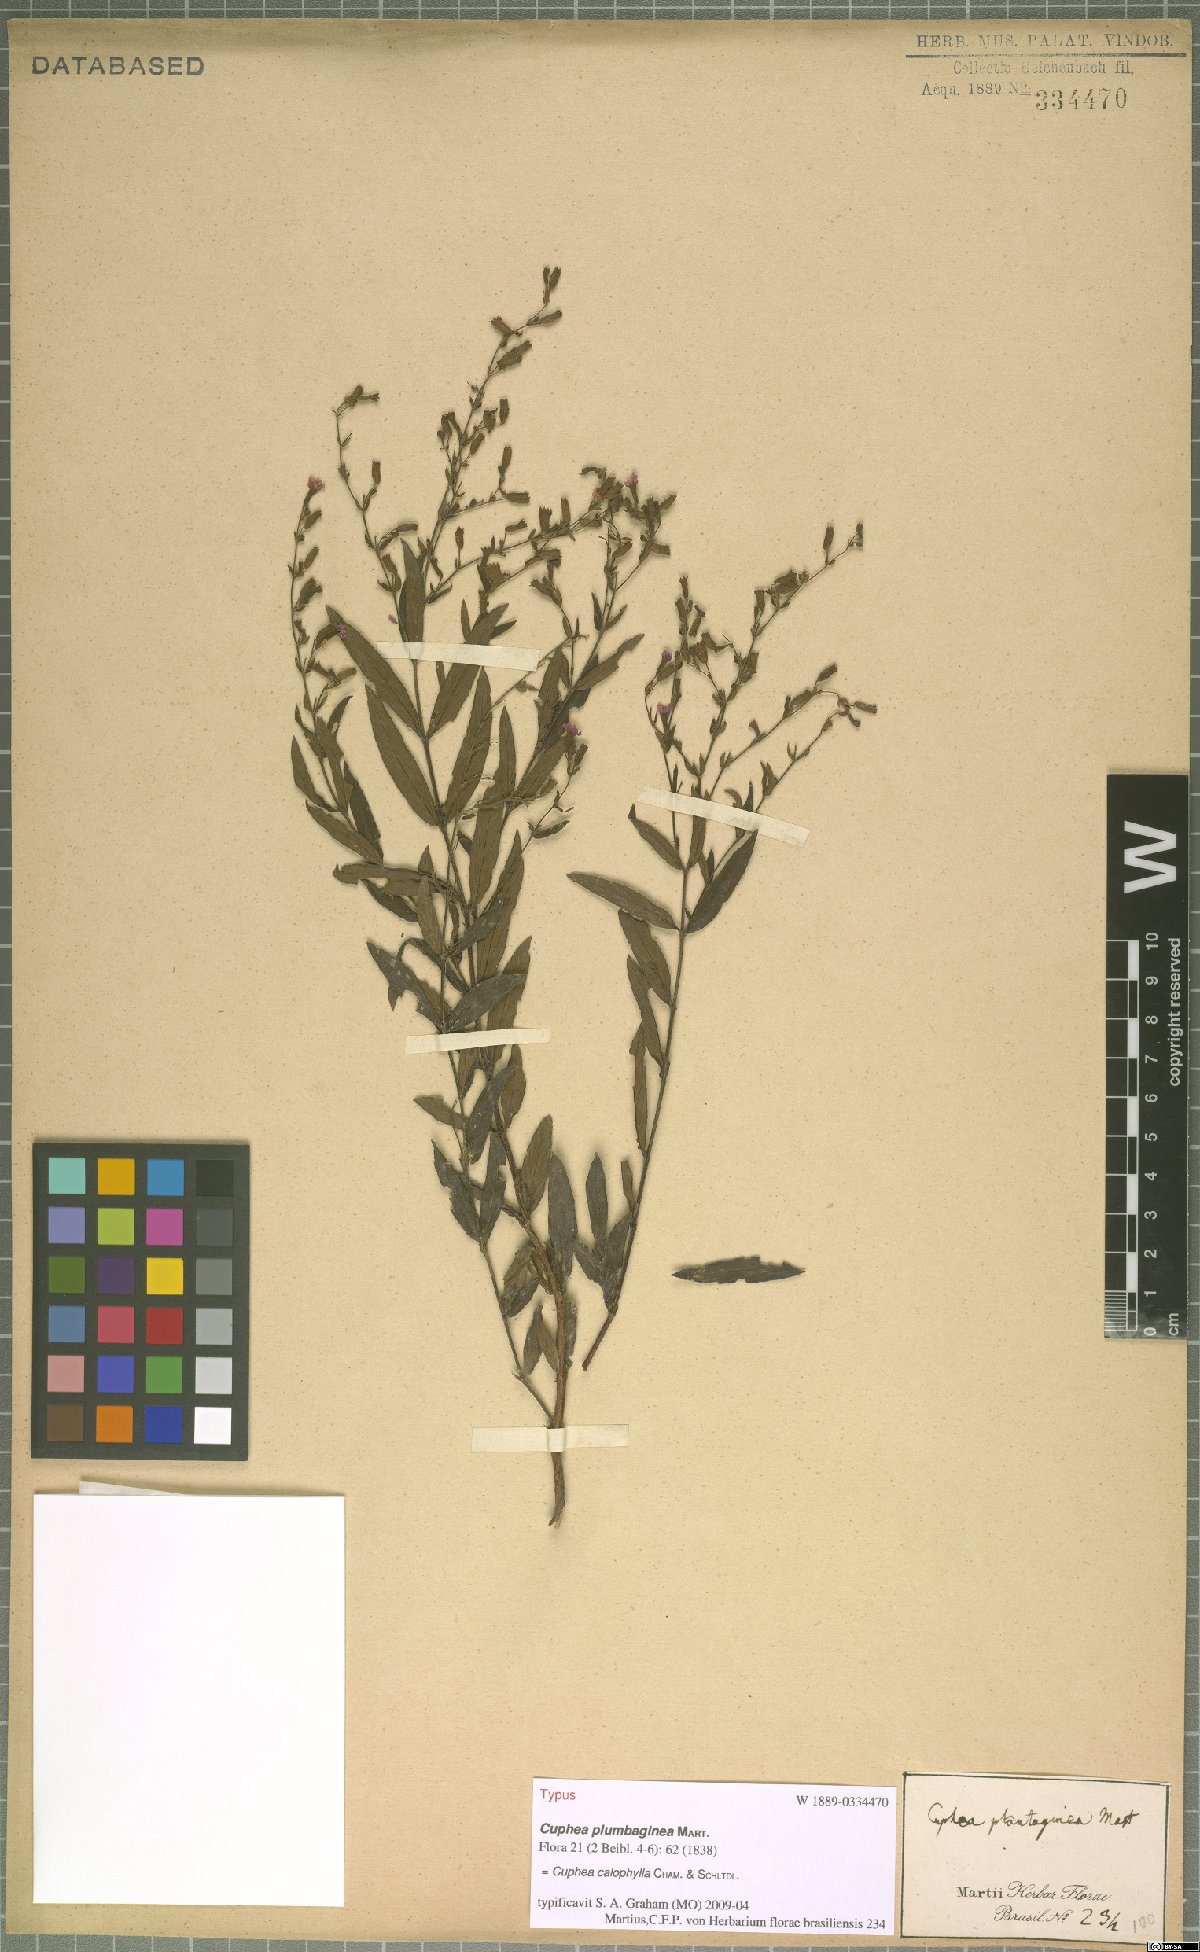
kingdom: Plantae
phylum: Tracheophyta
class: Magnoliopsida
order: Myrtales
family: Lythraceae
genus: Cuphea
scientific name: Cuphea calophylla
